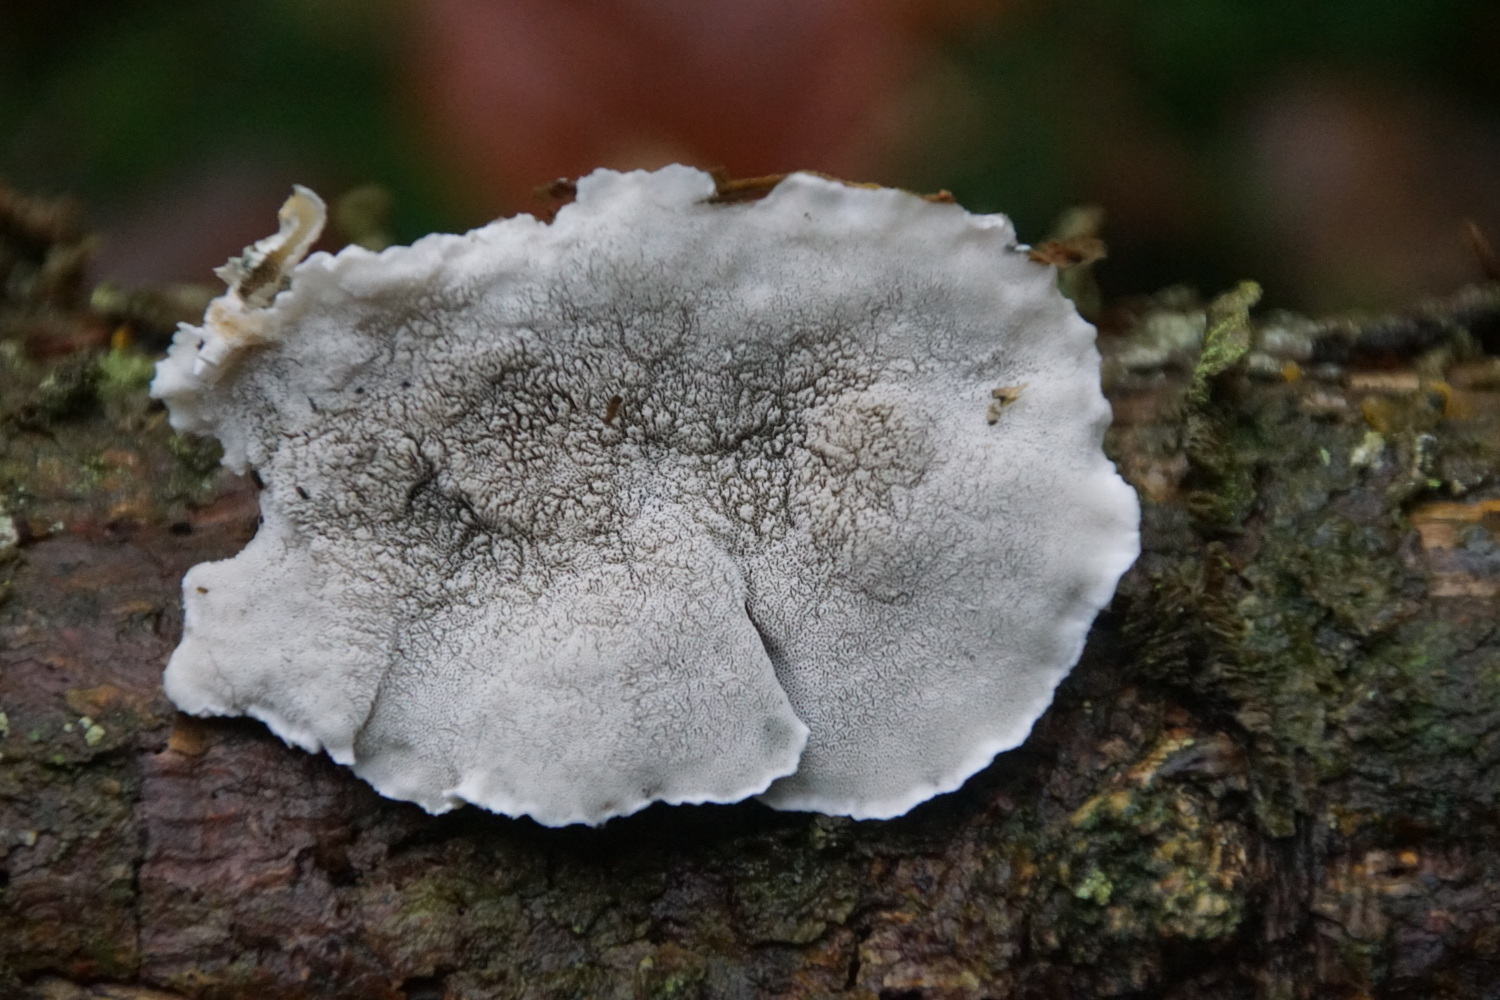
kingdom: Fungi
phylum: Basidiomycota
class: Agaricomycetes
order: Polyporales
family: Polyporaceae
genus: Cyanosporus
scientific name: Cyanosporus caesius
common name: blålig kødporesvamp
